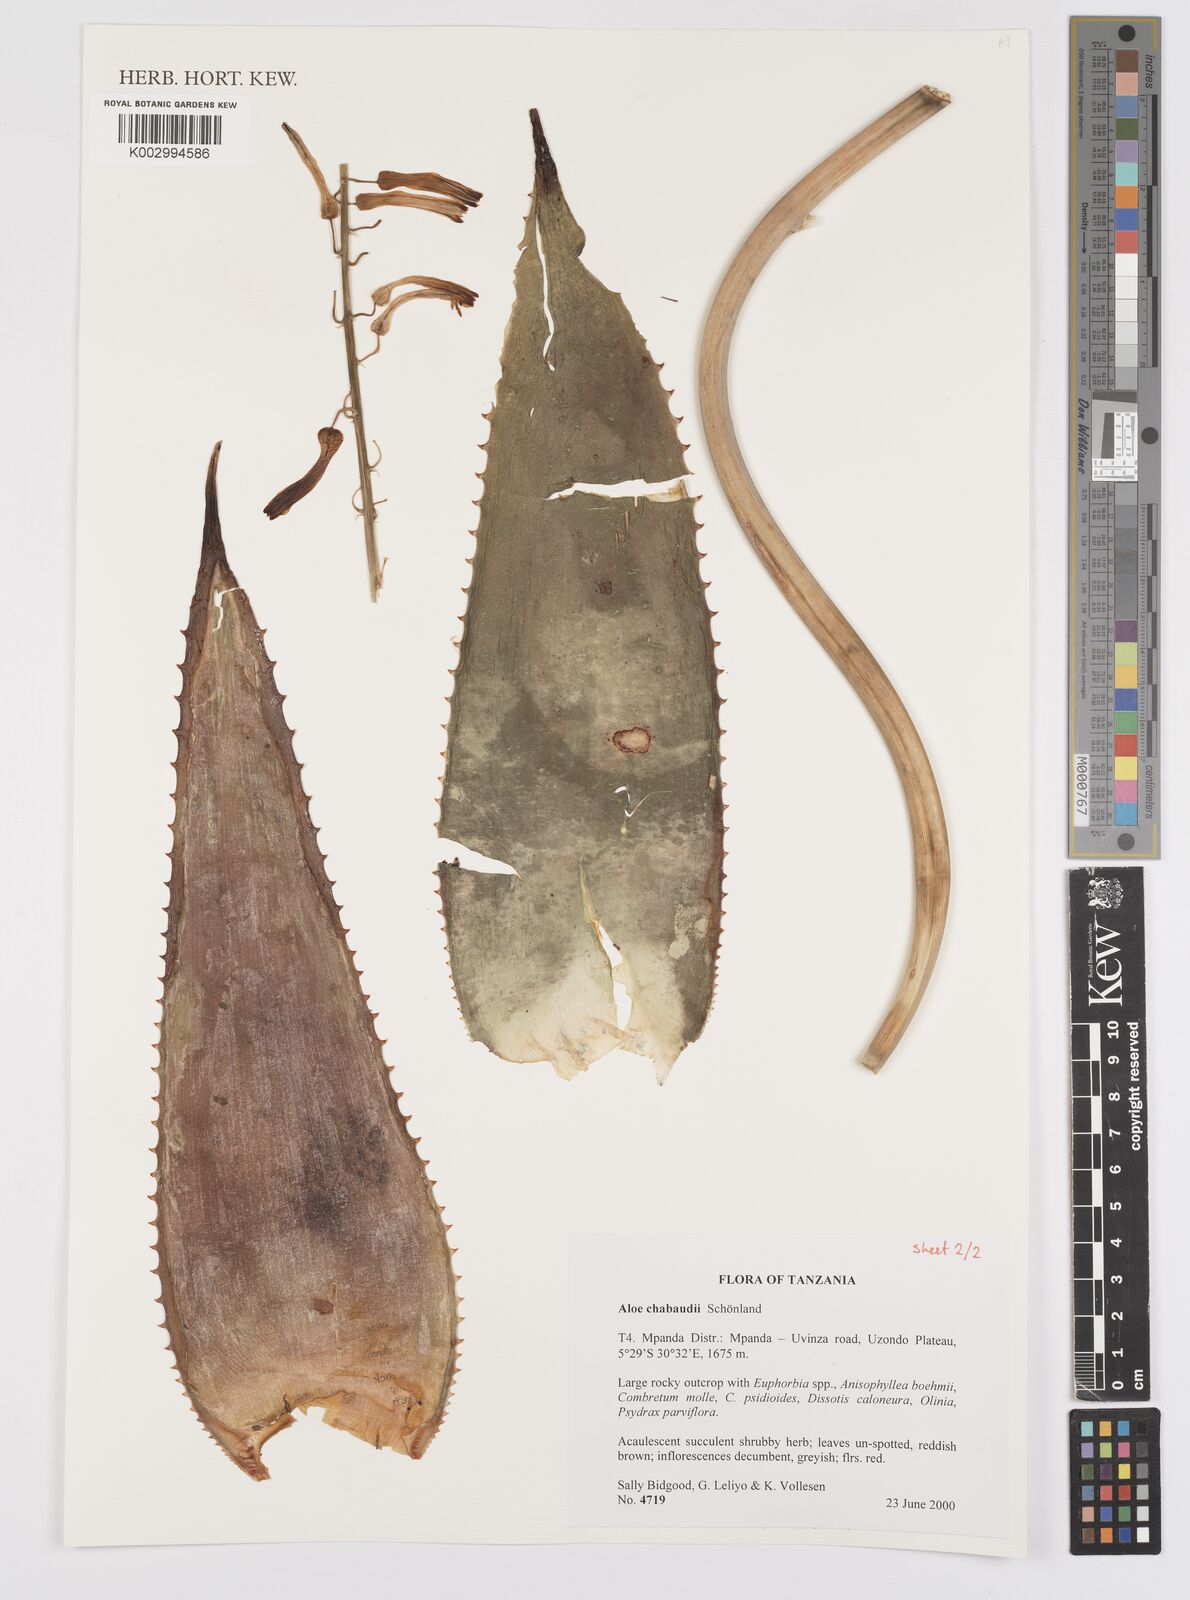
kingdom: Plantae
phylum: Tracheophyta
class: Liliopsida
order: Asparagales
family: Asphodelaceae
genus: Aloe
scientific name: Aloe chabaudii
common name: Chabaud's aloe
